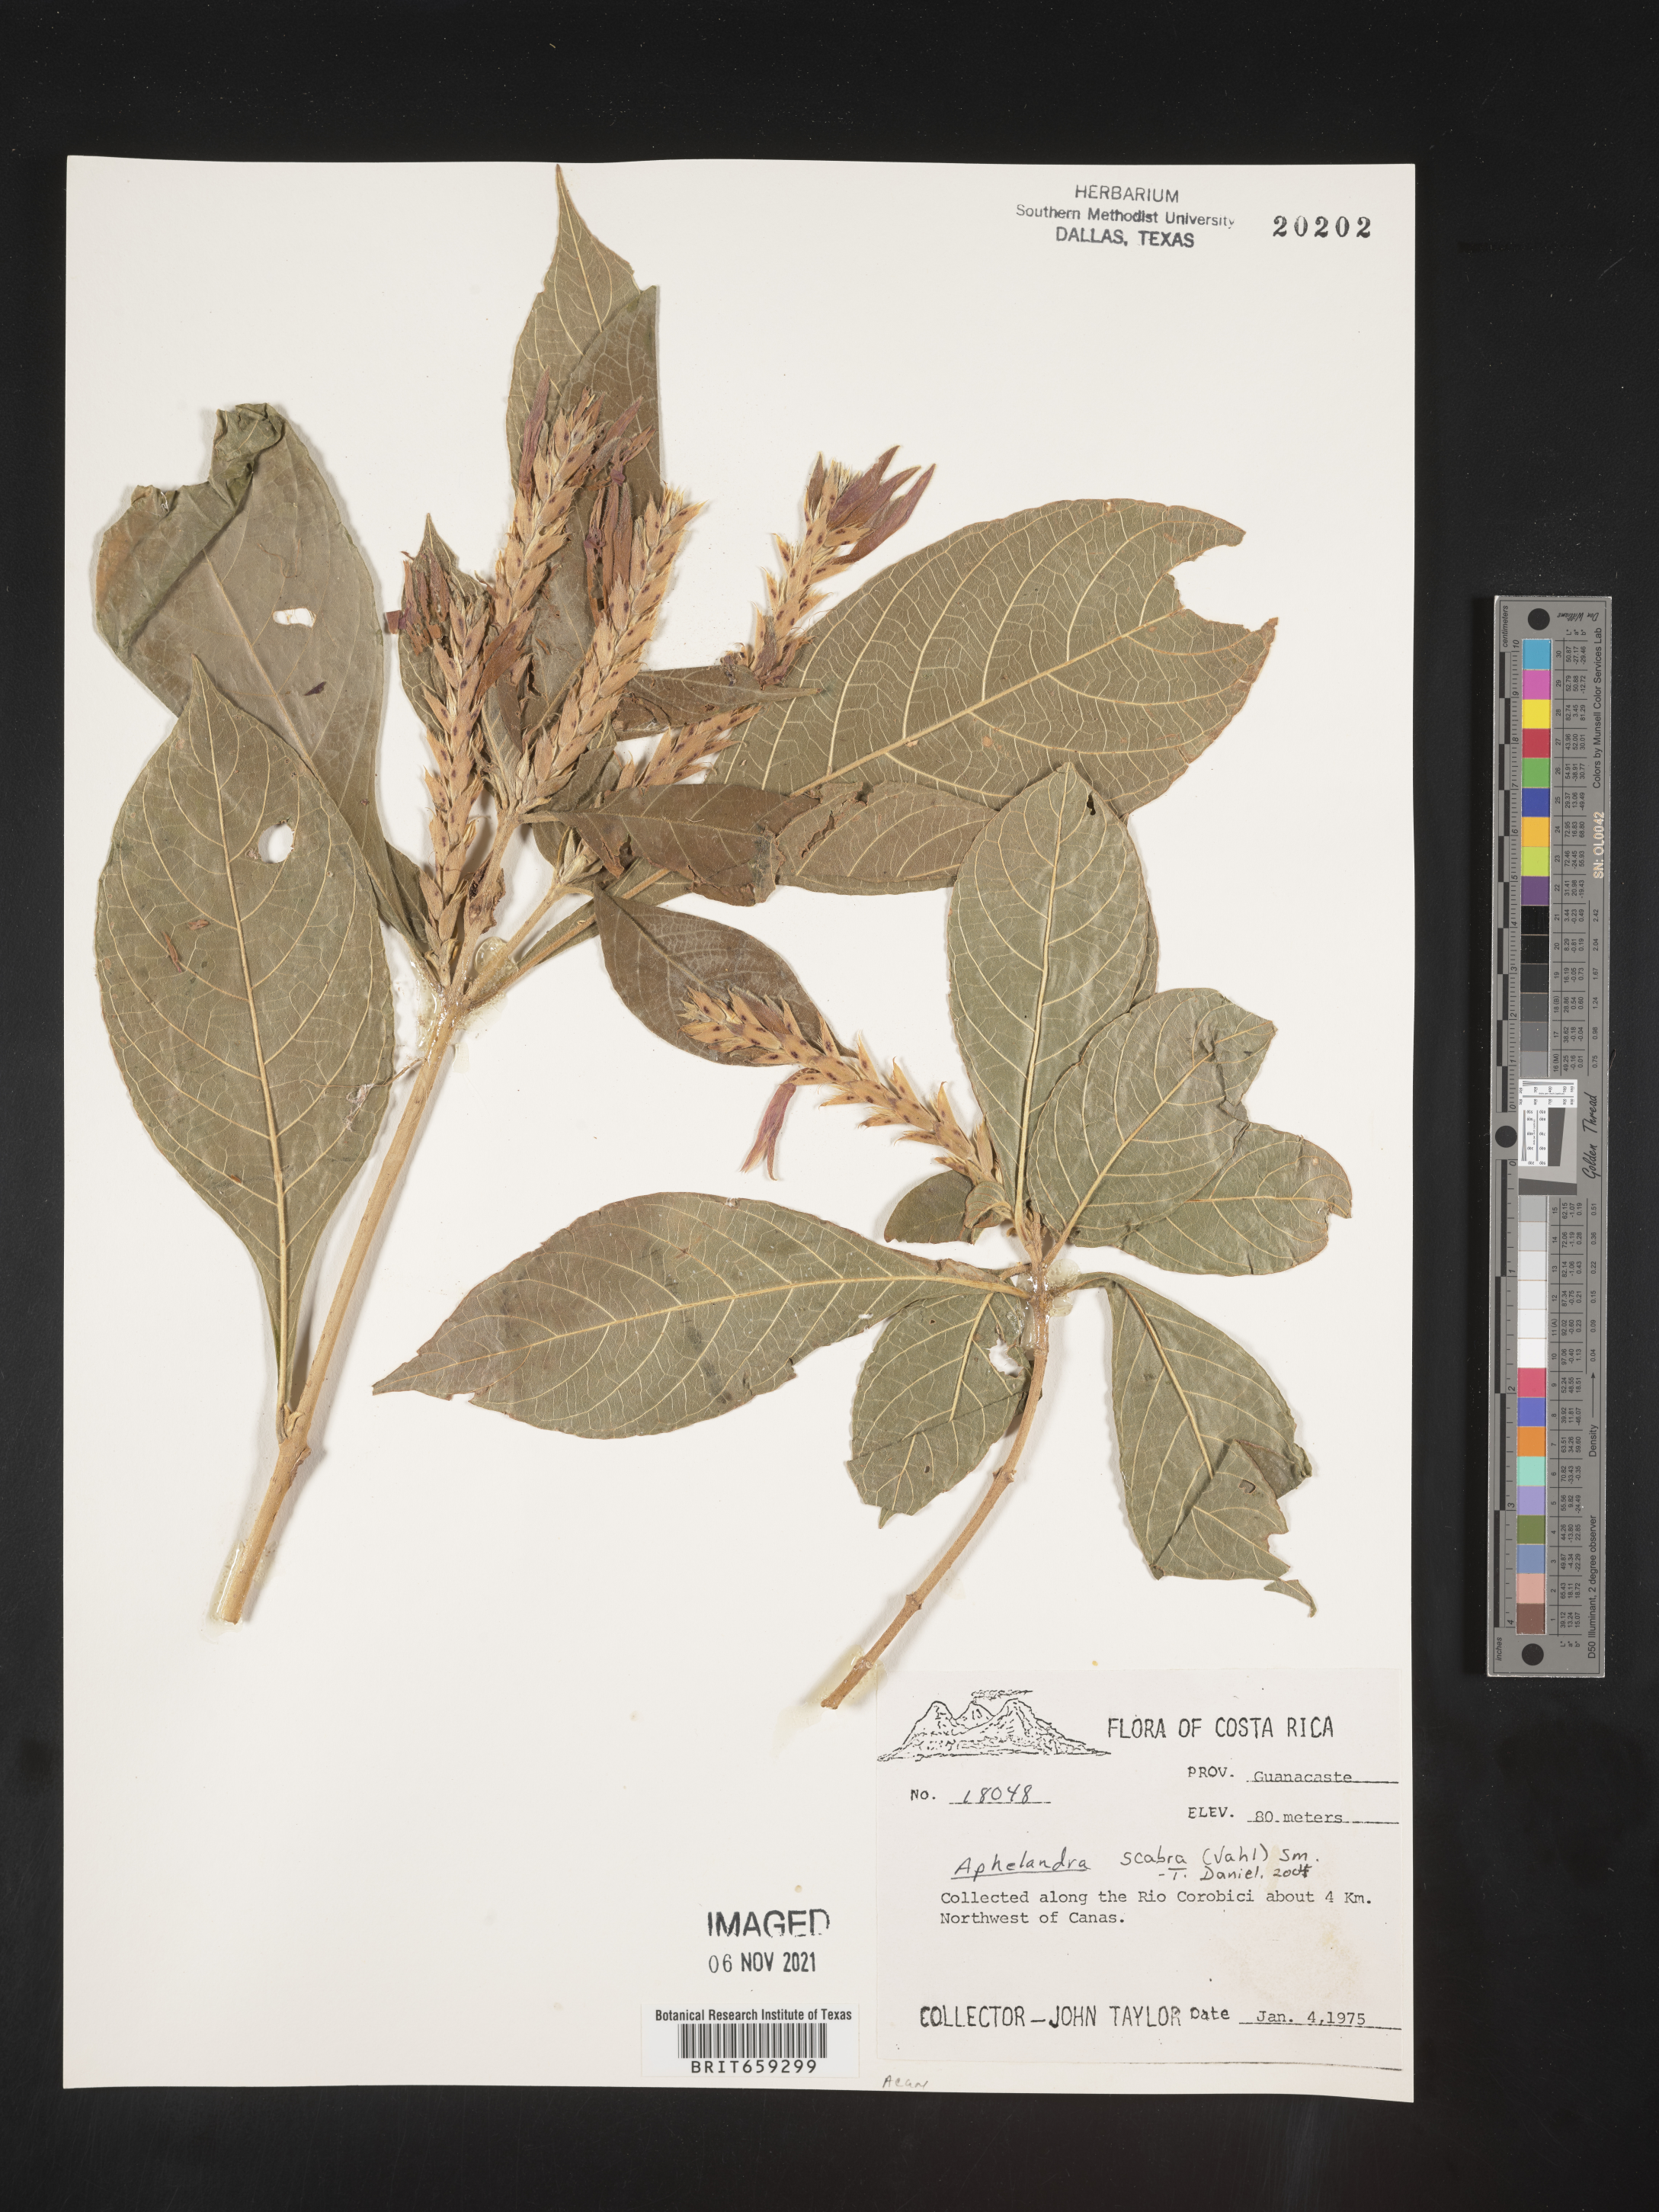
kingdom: Plantae
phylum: Tracheophyta
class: Magnoliopsida
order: Lamiales
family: Acanthaceae
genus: Aphelandra
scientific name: Aphelandra
